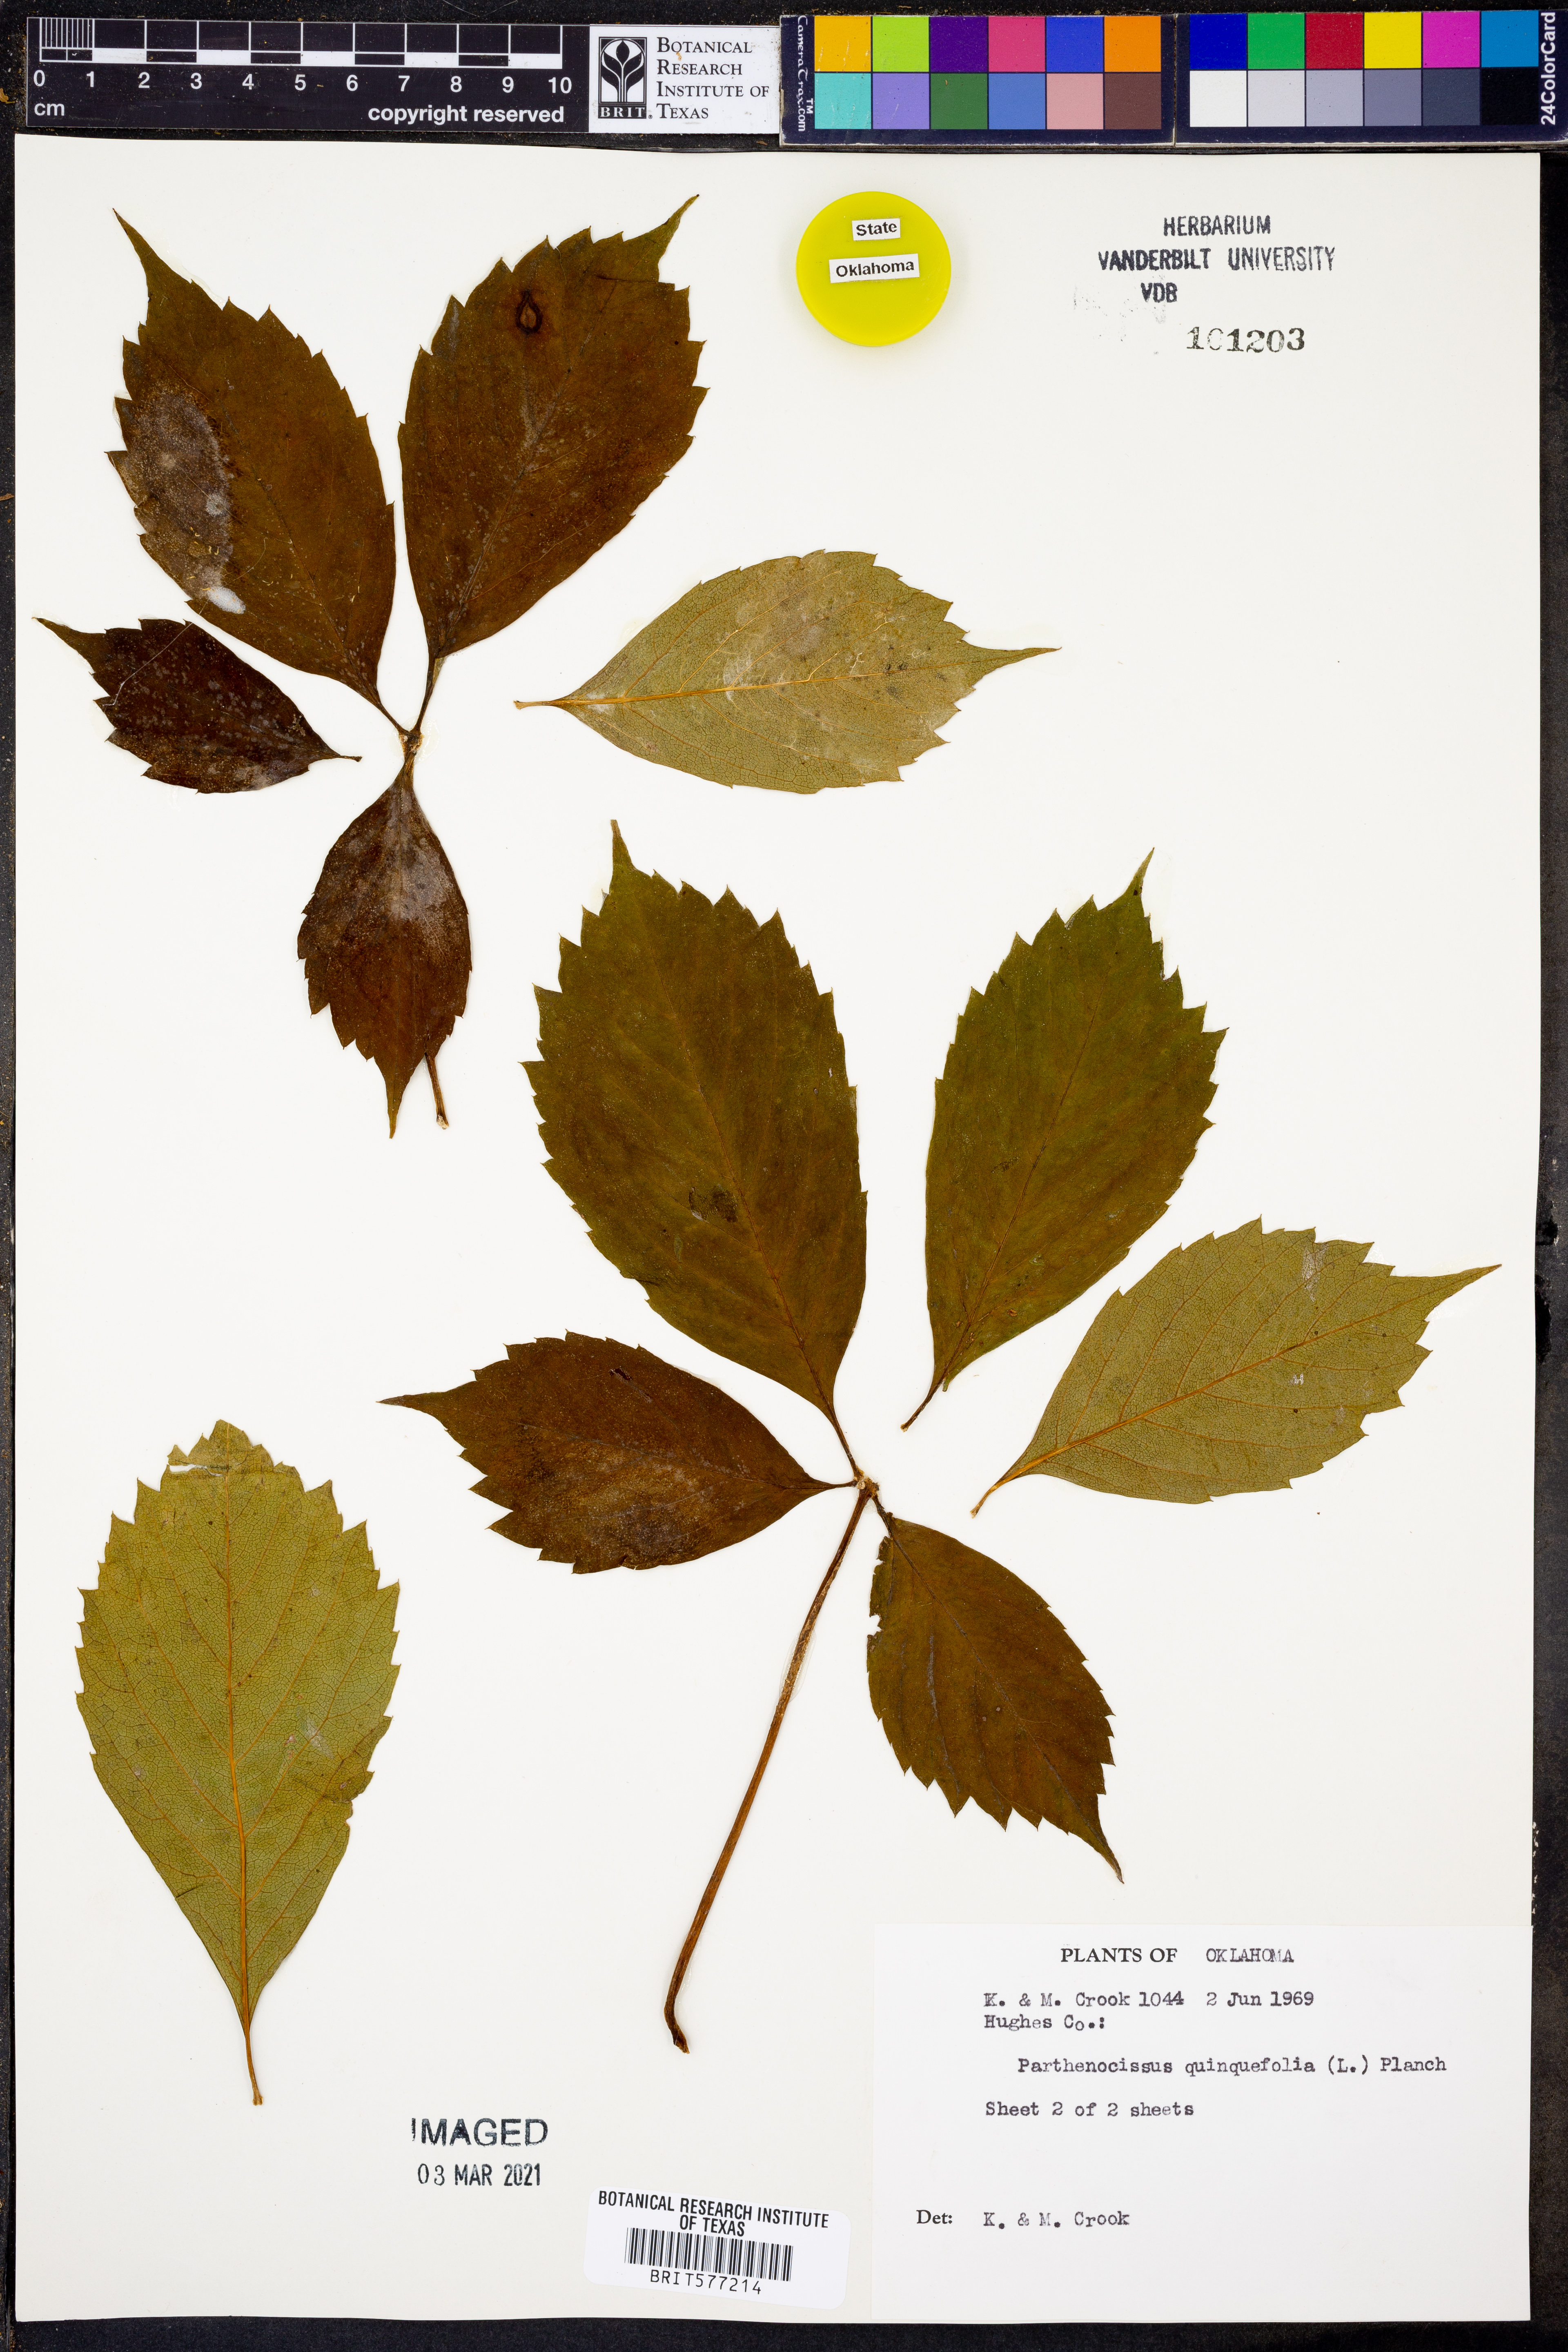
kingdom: Plantae
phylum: Tracheophyta
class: Magnoliopsida
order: Vitales
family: Vitaceae
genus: Parthenocissus
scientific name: Parthenocissus quinquefolia
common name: Virginia-creeper
